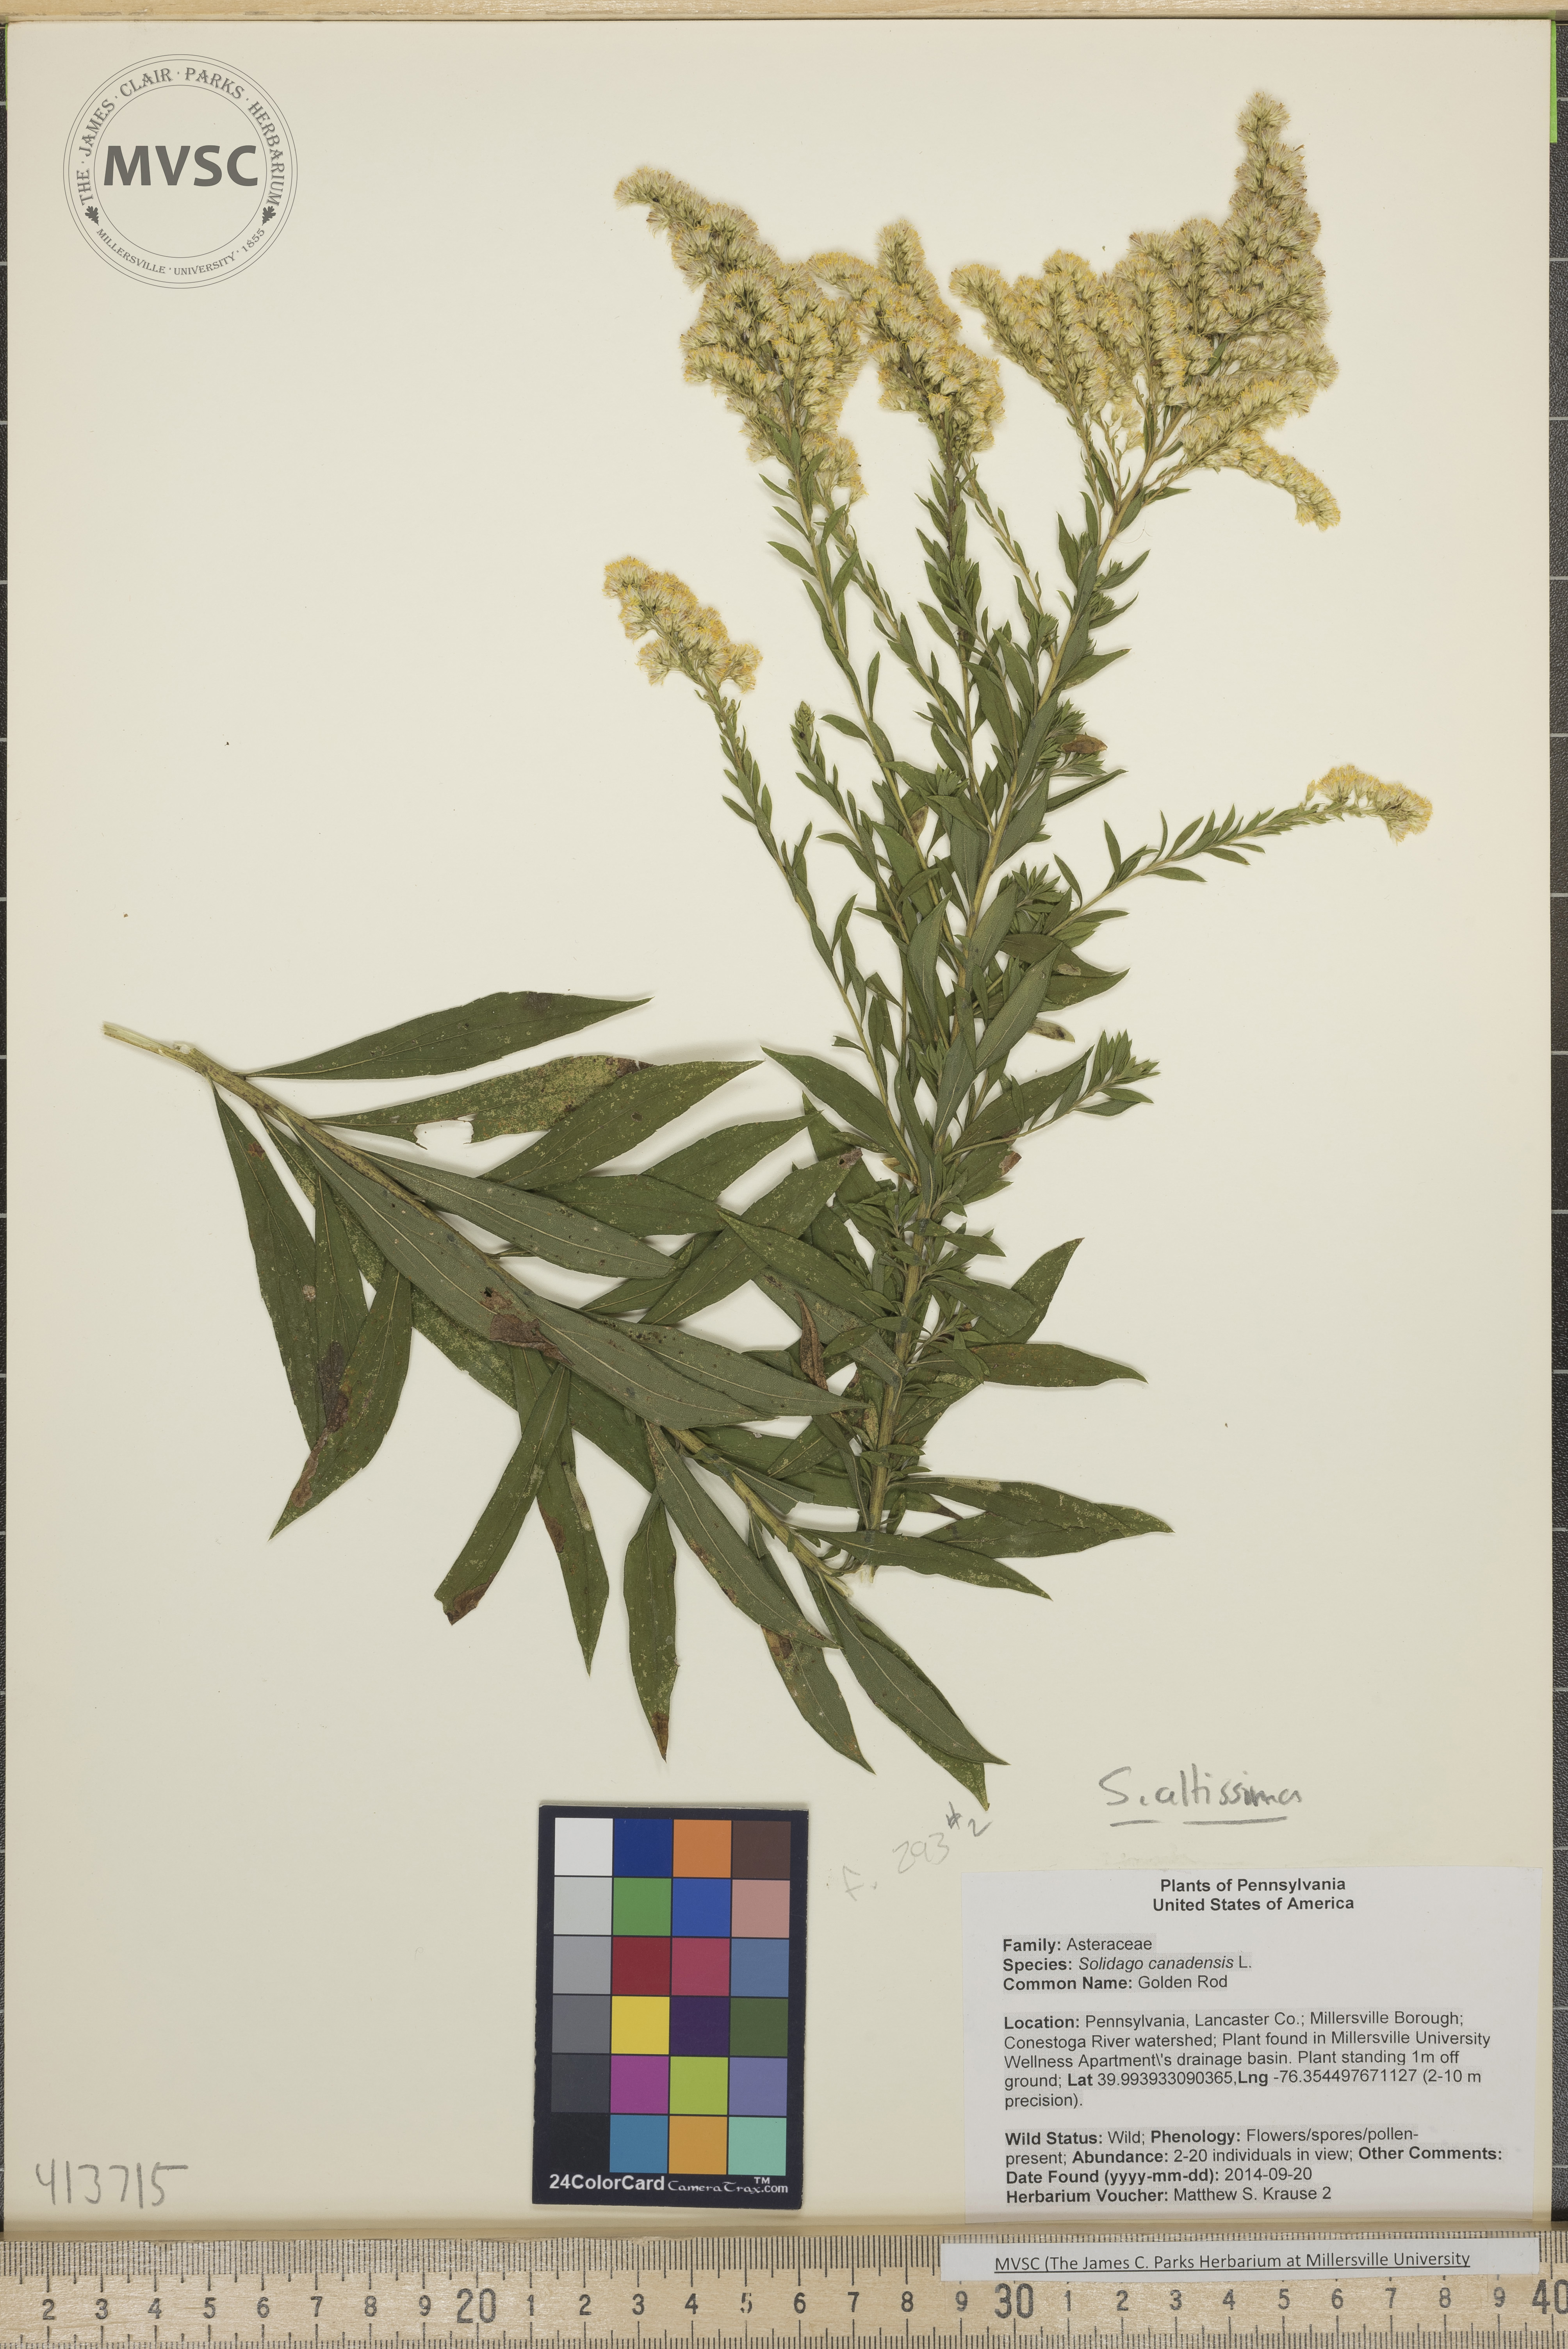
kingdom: Plantae
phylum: Tracheophyta
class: Magnoliopsida
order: Asterales
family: Asteraceae
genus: Solidago
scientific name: Solidago altissima
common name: Late Goldenrod
